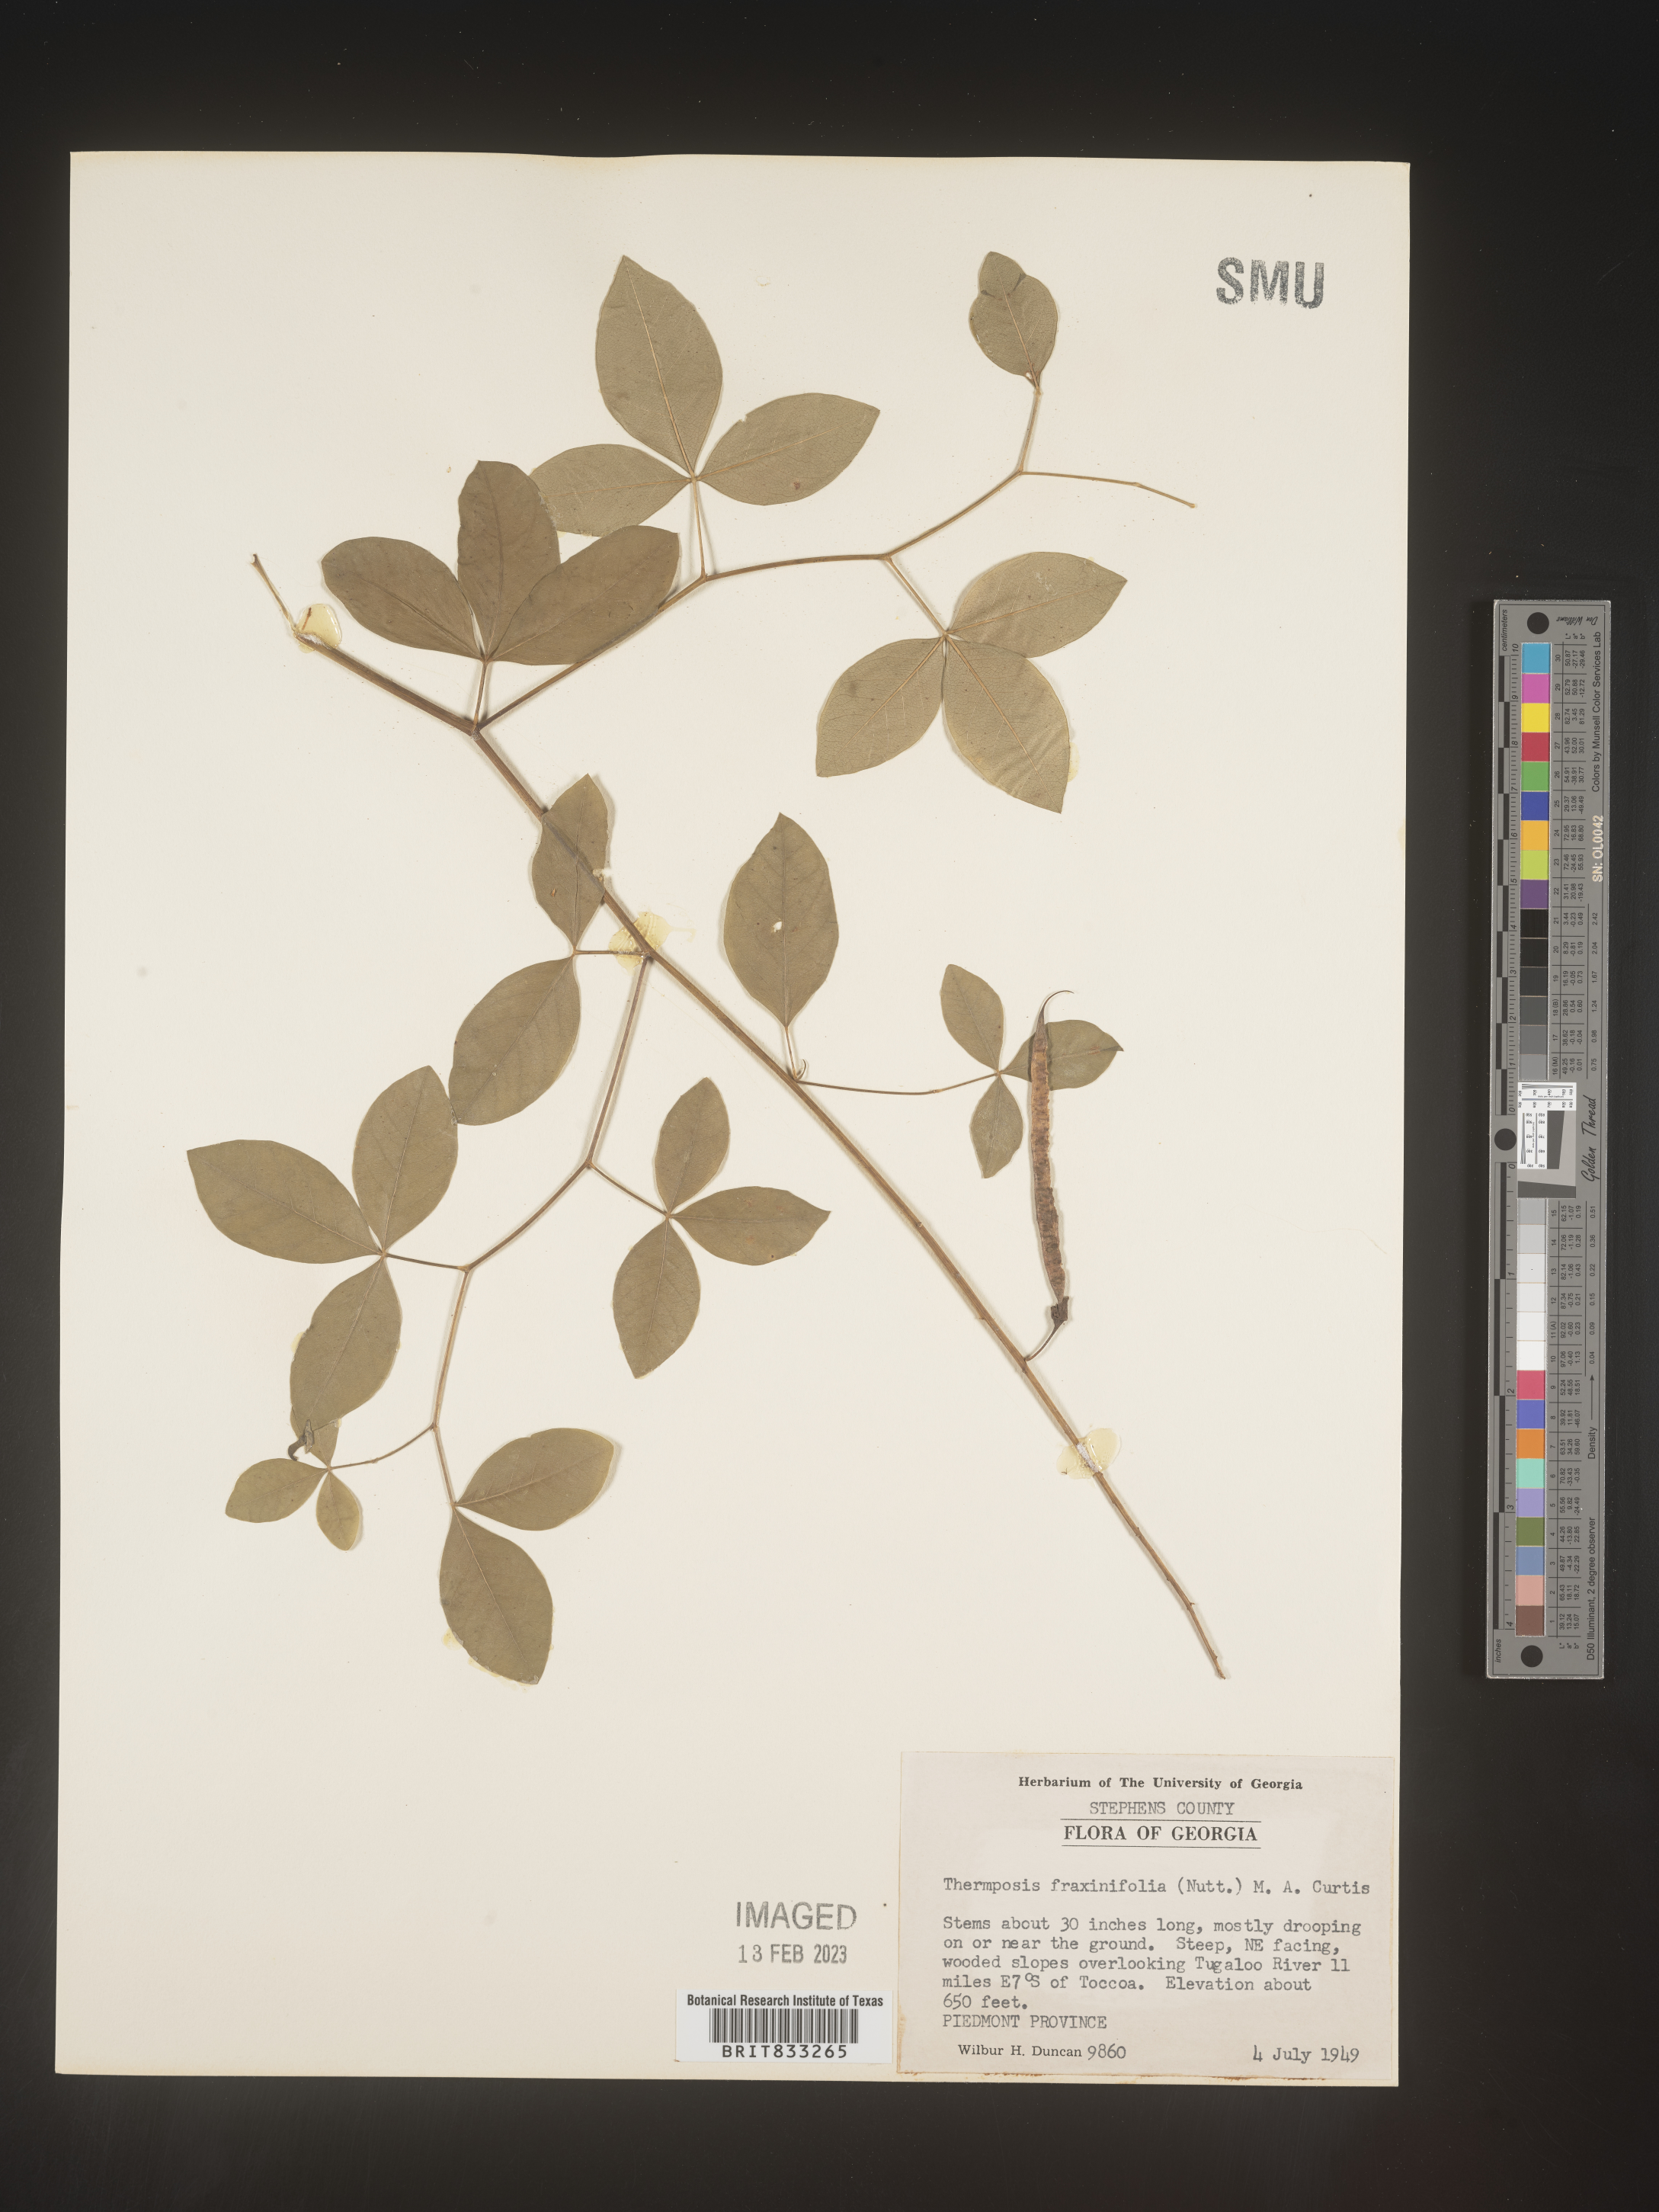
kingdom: Plantae
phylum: Tracheophyta
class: Magnoliopsida
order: Fabales
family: Fabaceae
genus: Thermopsis
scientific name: Thermopsis mollis
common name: Allegheny mountain goldenbanner
